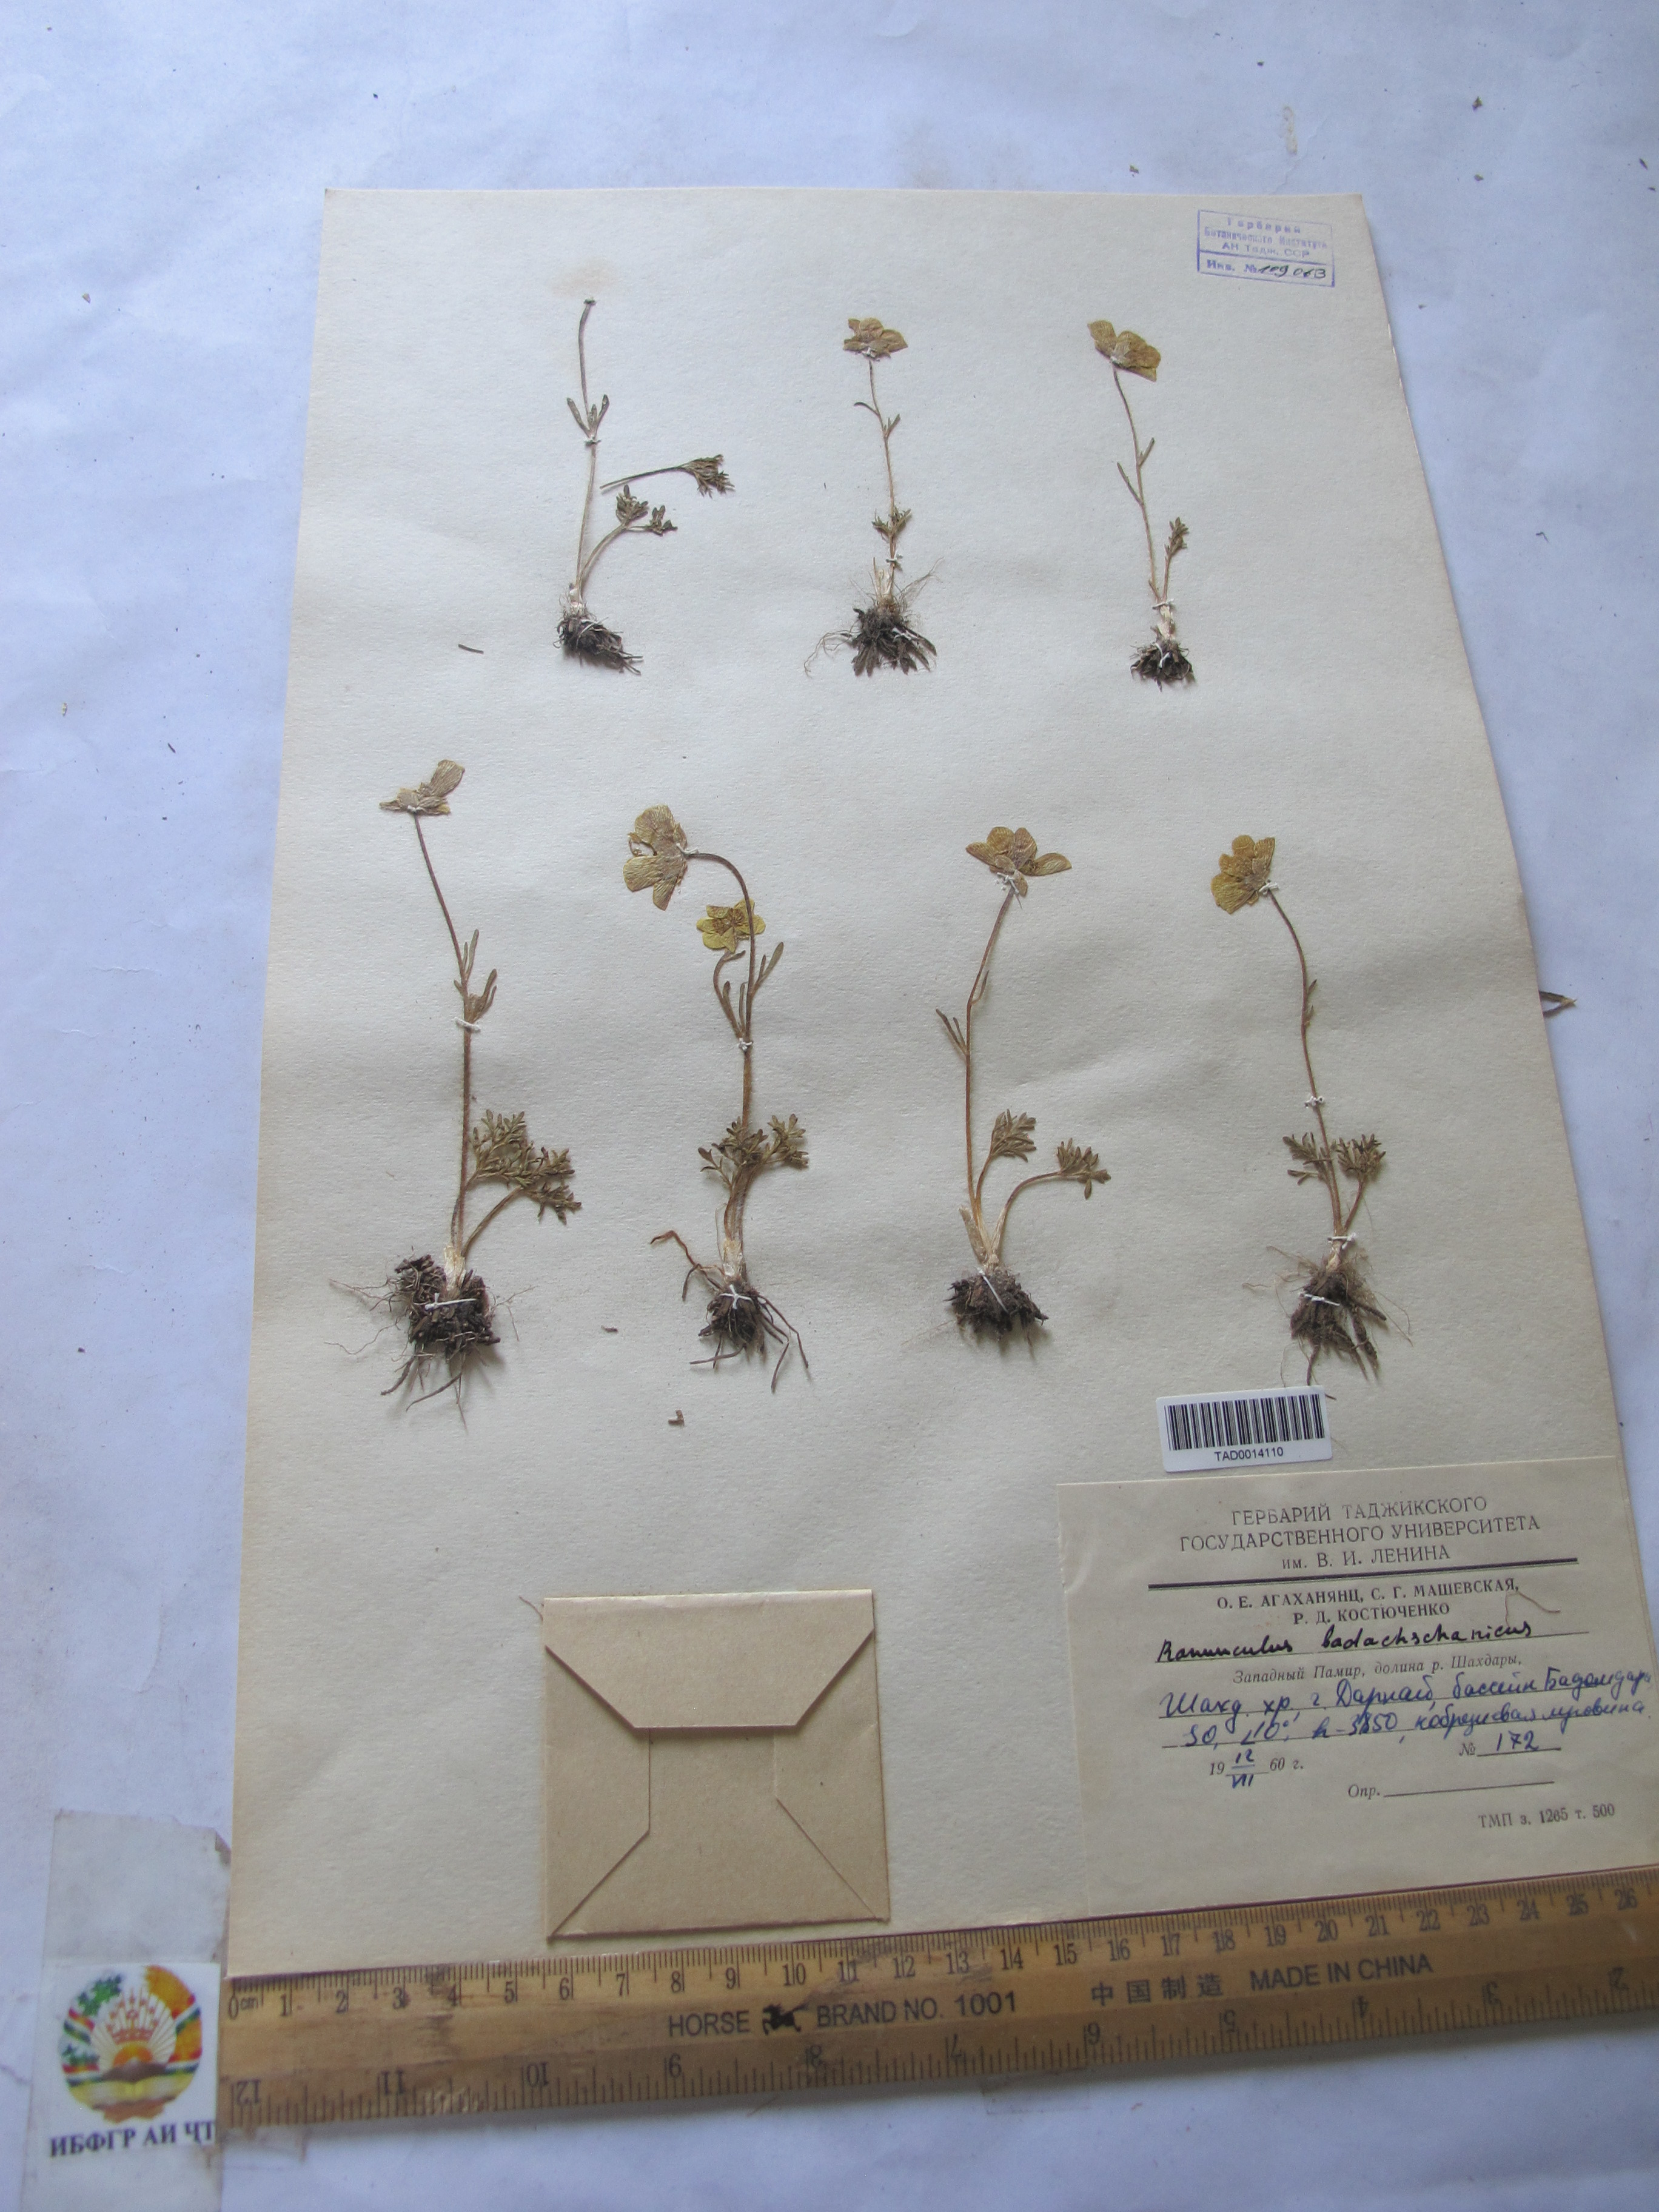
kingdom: Plantae
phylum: Tracheophyta
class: Magnoliopsida
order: Ranunculales
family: Ranunculaceae
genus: Ranunculus
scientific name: Ranunculus badachschanicus
